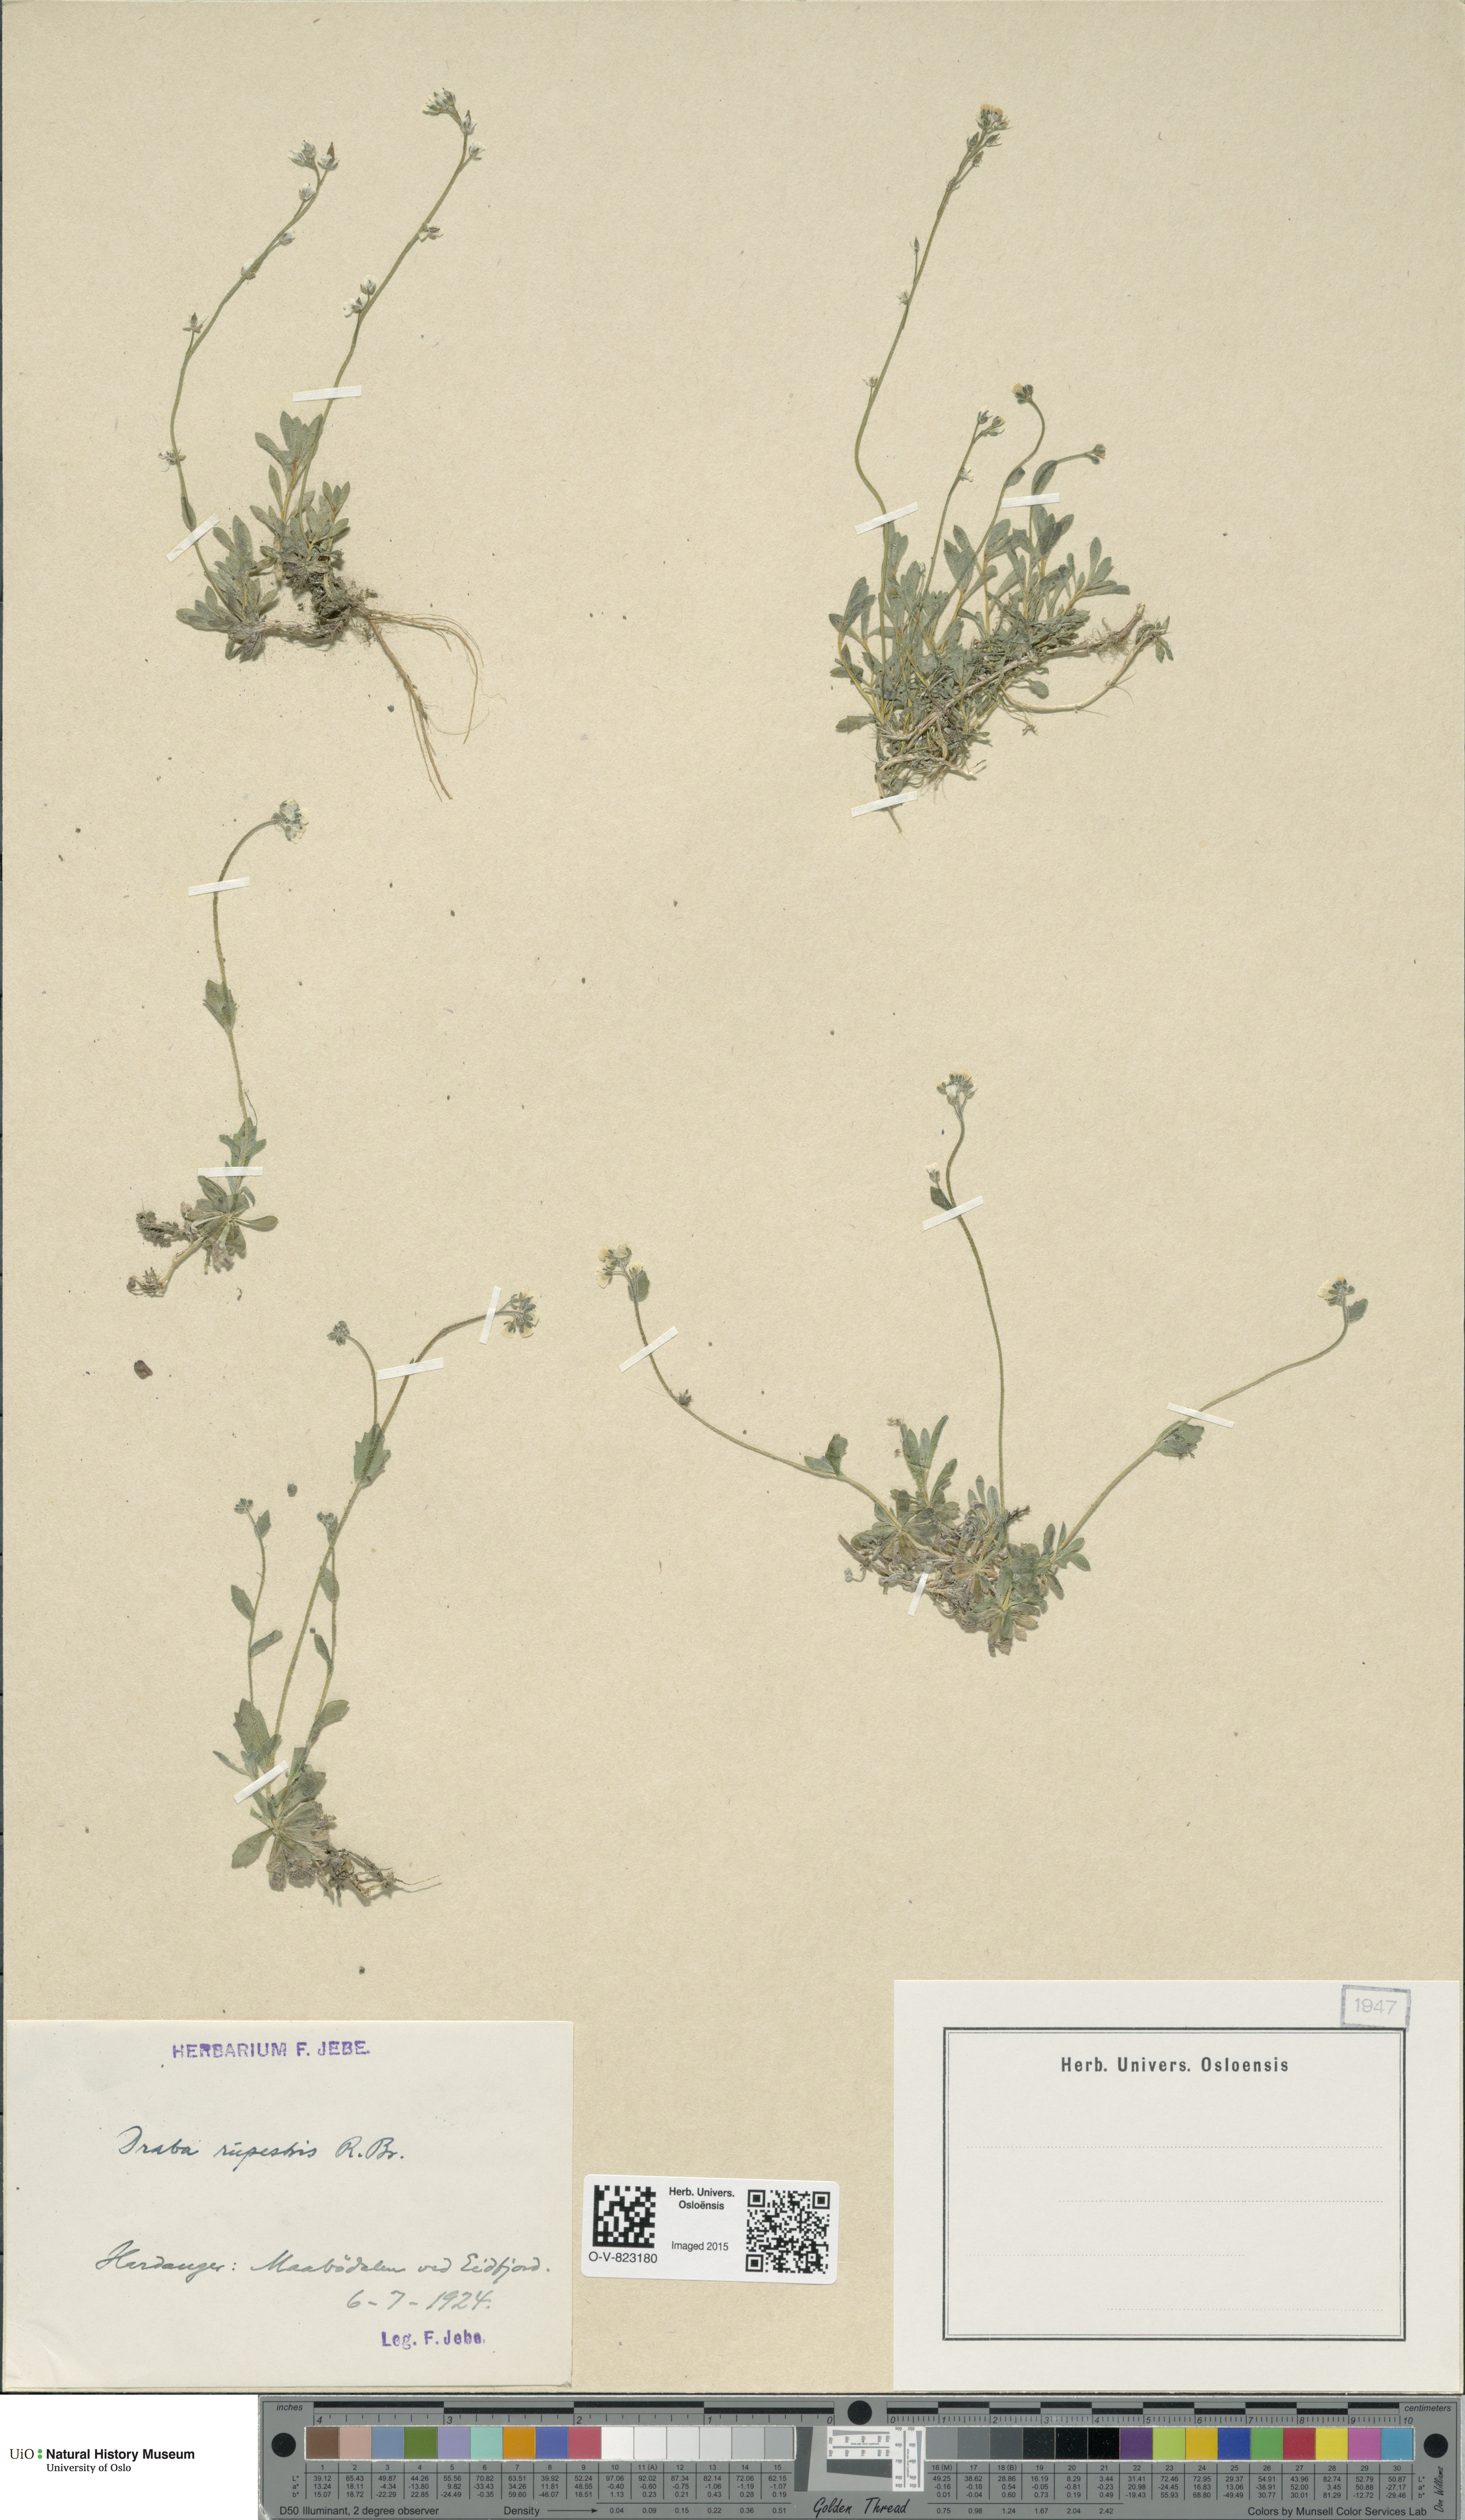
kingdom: Plantae
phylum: Tracheophyta
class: Magnoliopsida
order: Brassicales
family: Brassicaceae
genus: Draba
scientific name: Draba norvegica
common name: Rock whitlowgrass
